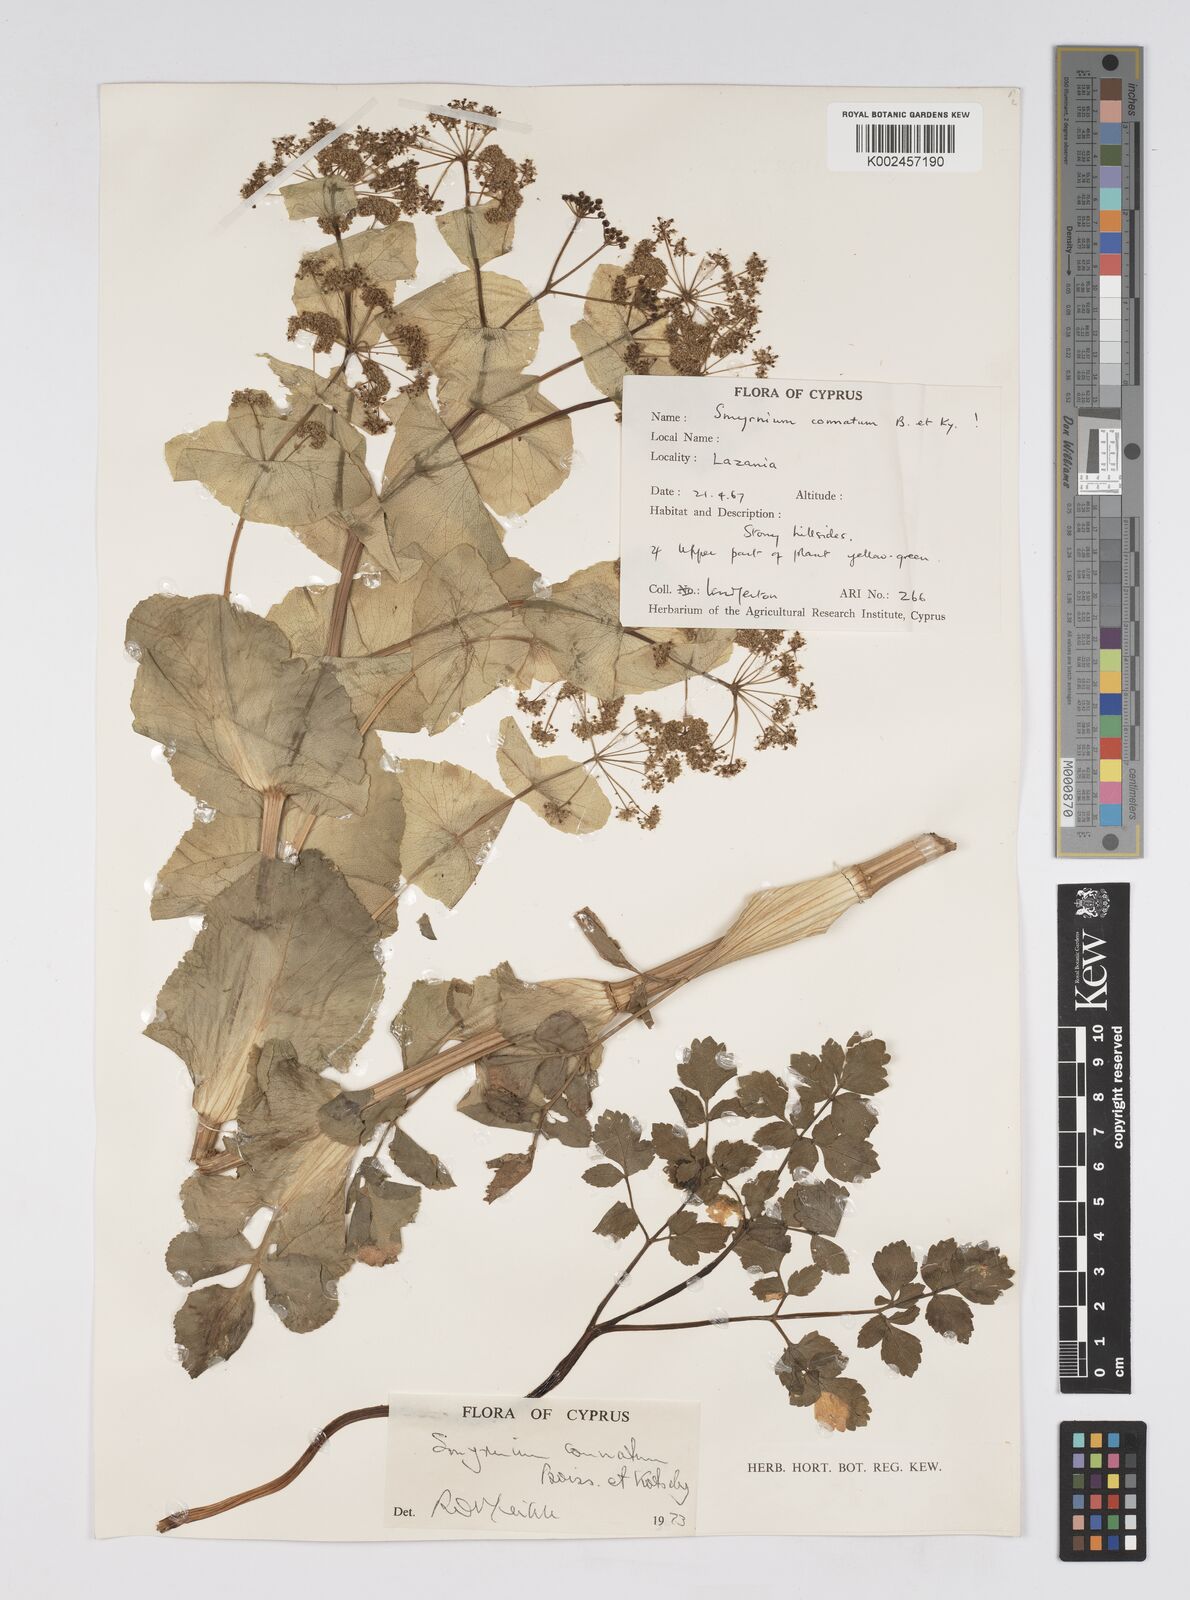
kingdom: Plantae
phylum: Tracheophyta
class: Magnoliopsida
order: Apiales
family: Apiaceae
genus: Smyrnium
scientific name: Smyrnium connatum
